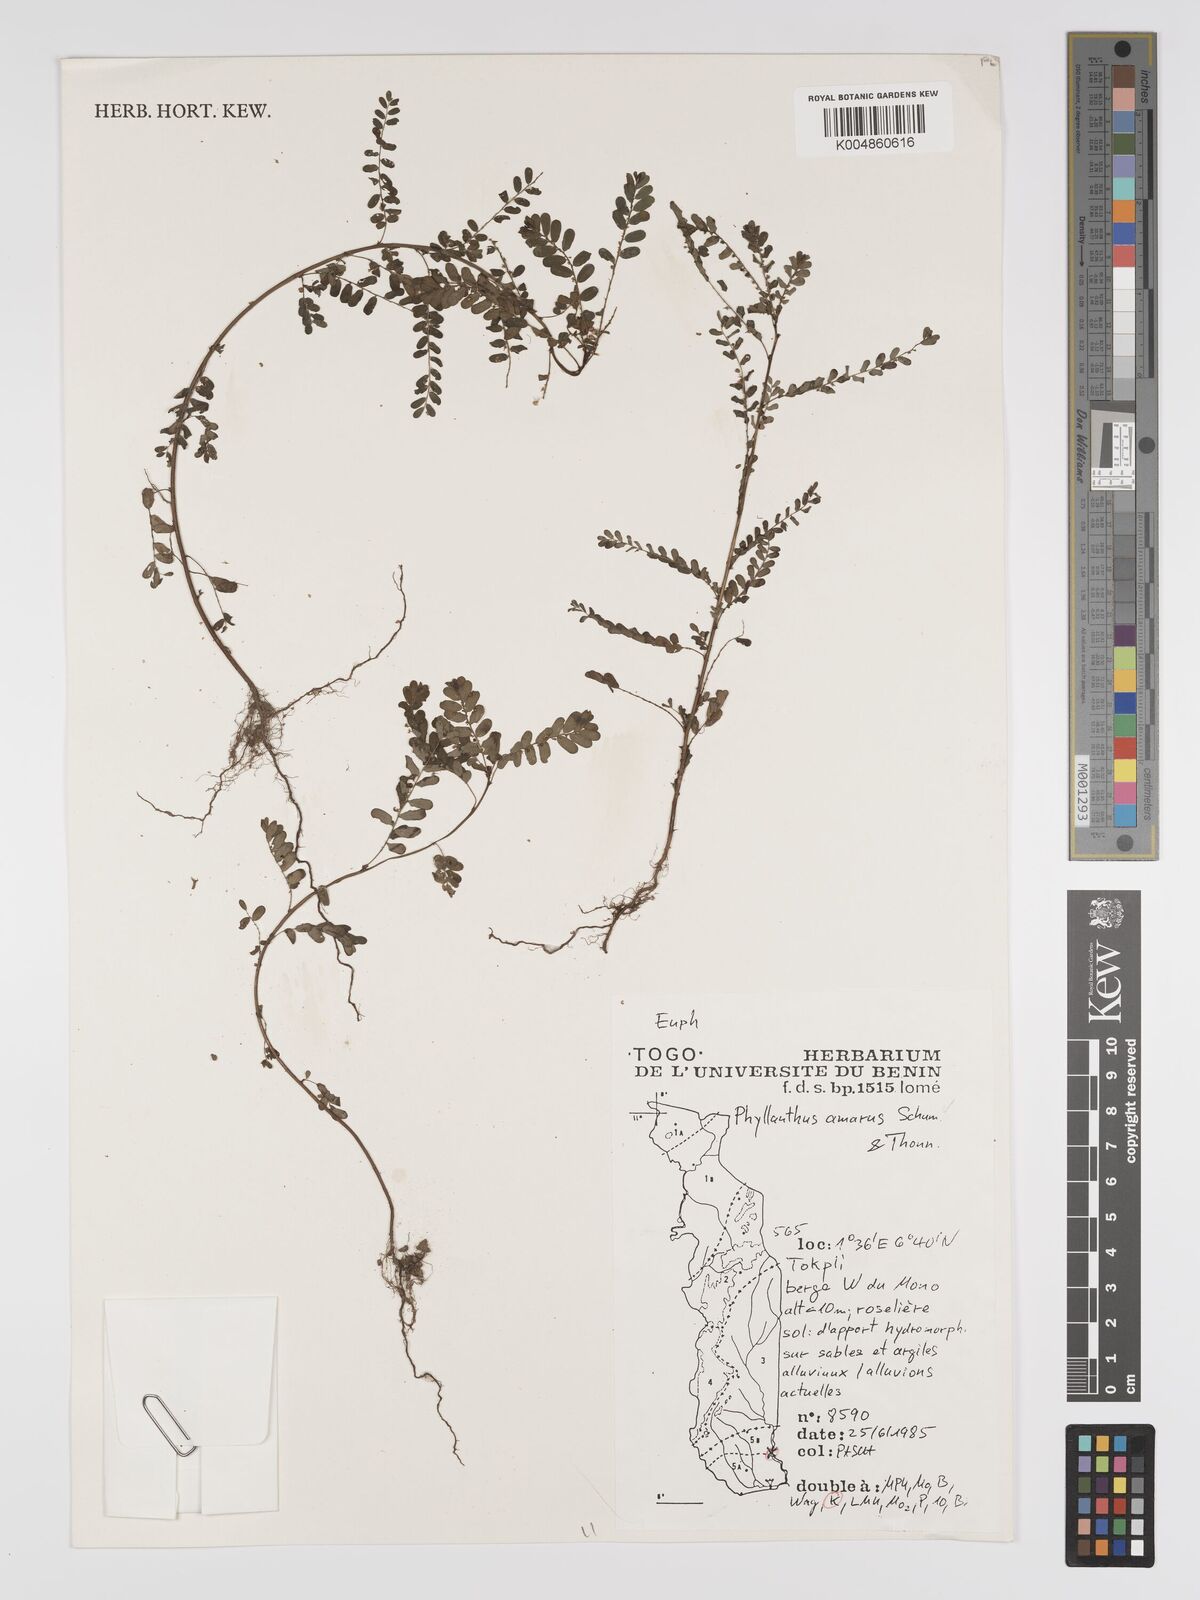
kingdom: Plantae
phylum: Tracheophyta
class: Magnoliopsida
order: Malpighiales
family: Phyllanthaceae
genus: Phyllanthus
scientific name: Phyllanthus amarus
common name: Carry me seed
